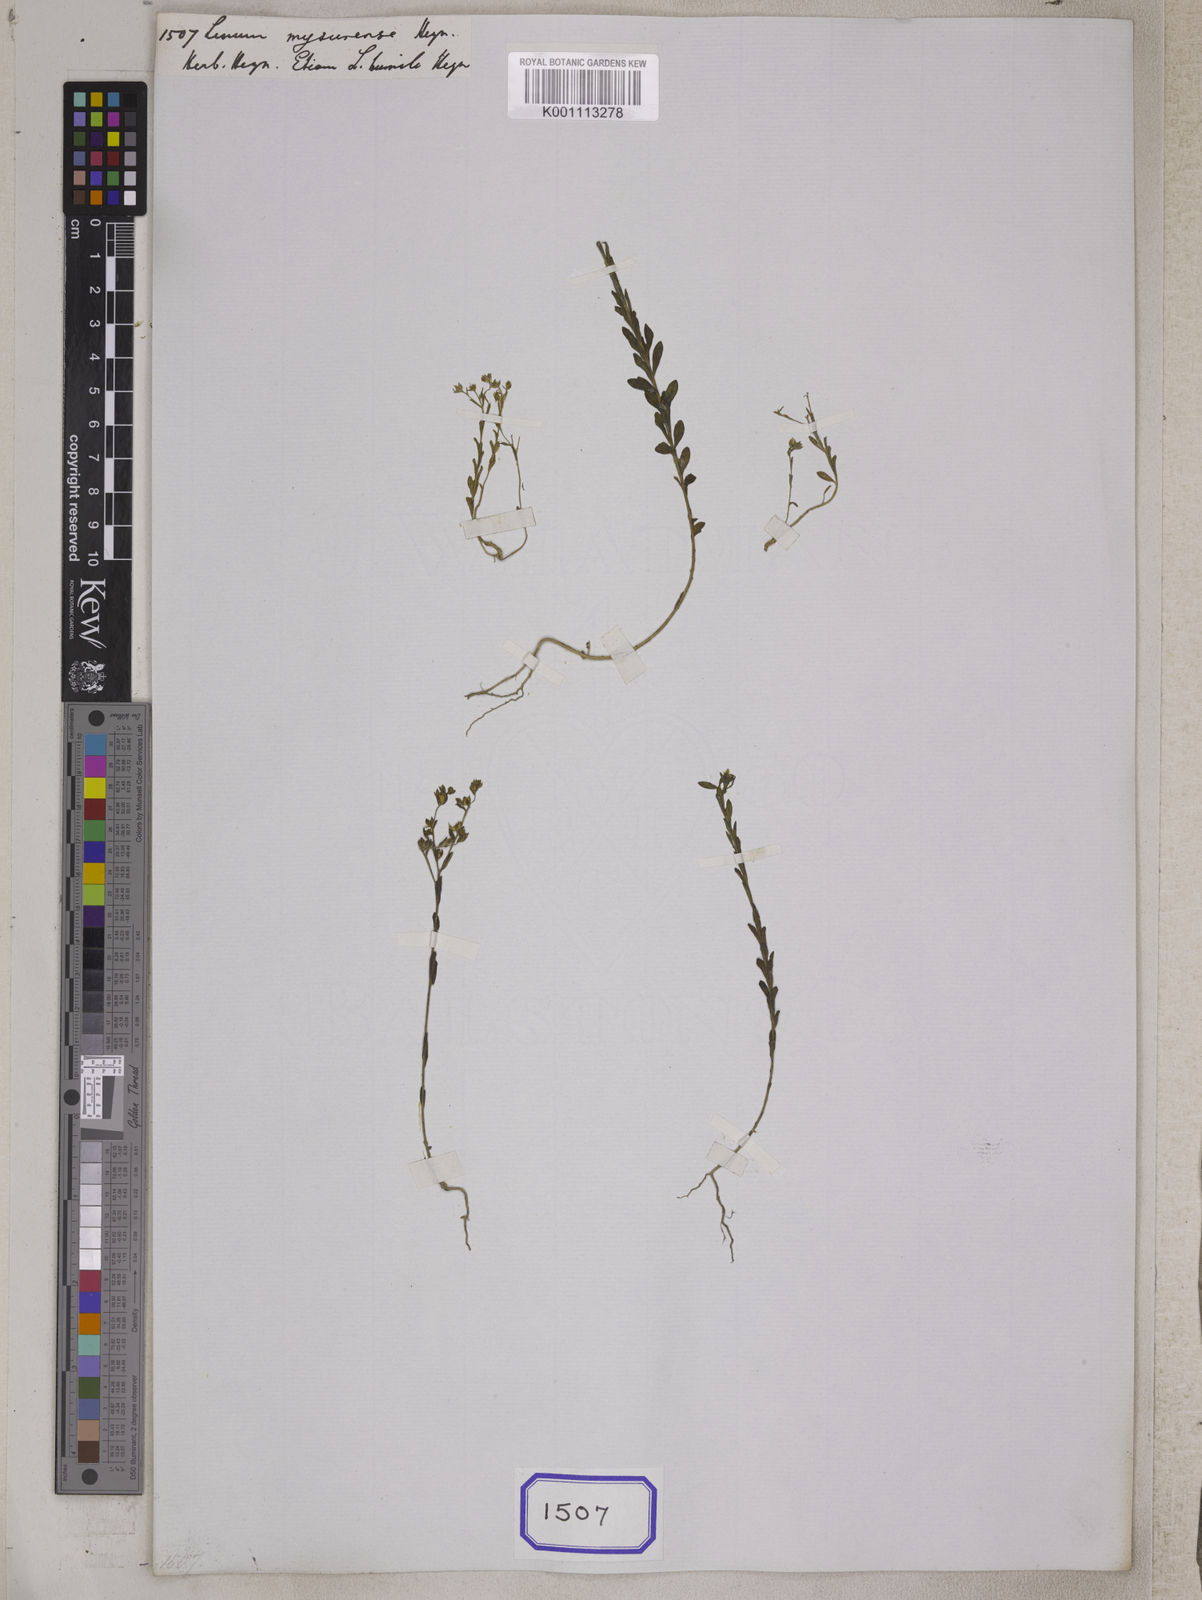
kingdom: Plantae
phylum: Tracheophyta
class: Magnoliopsida
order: Malpighiales
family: Linaceae
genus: Linum
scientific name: Linum
